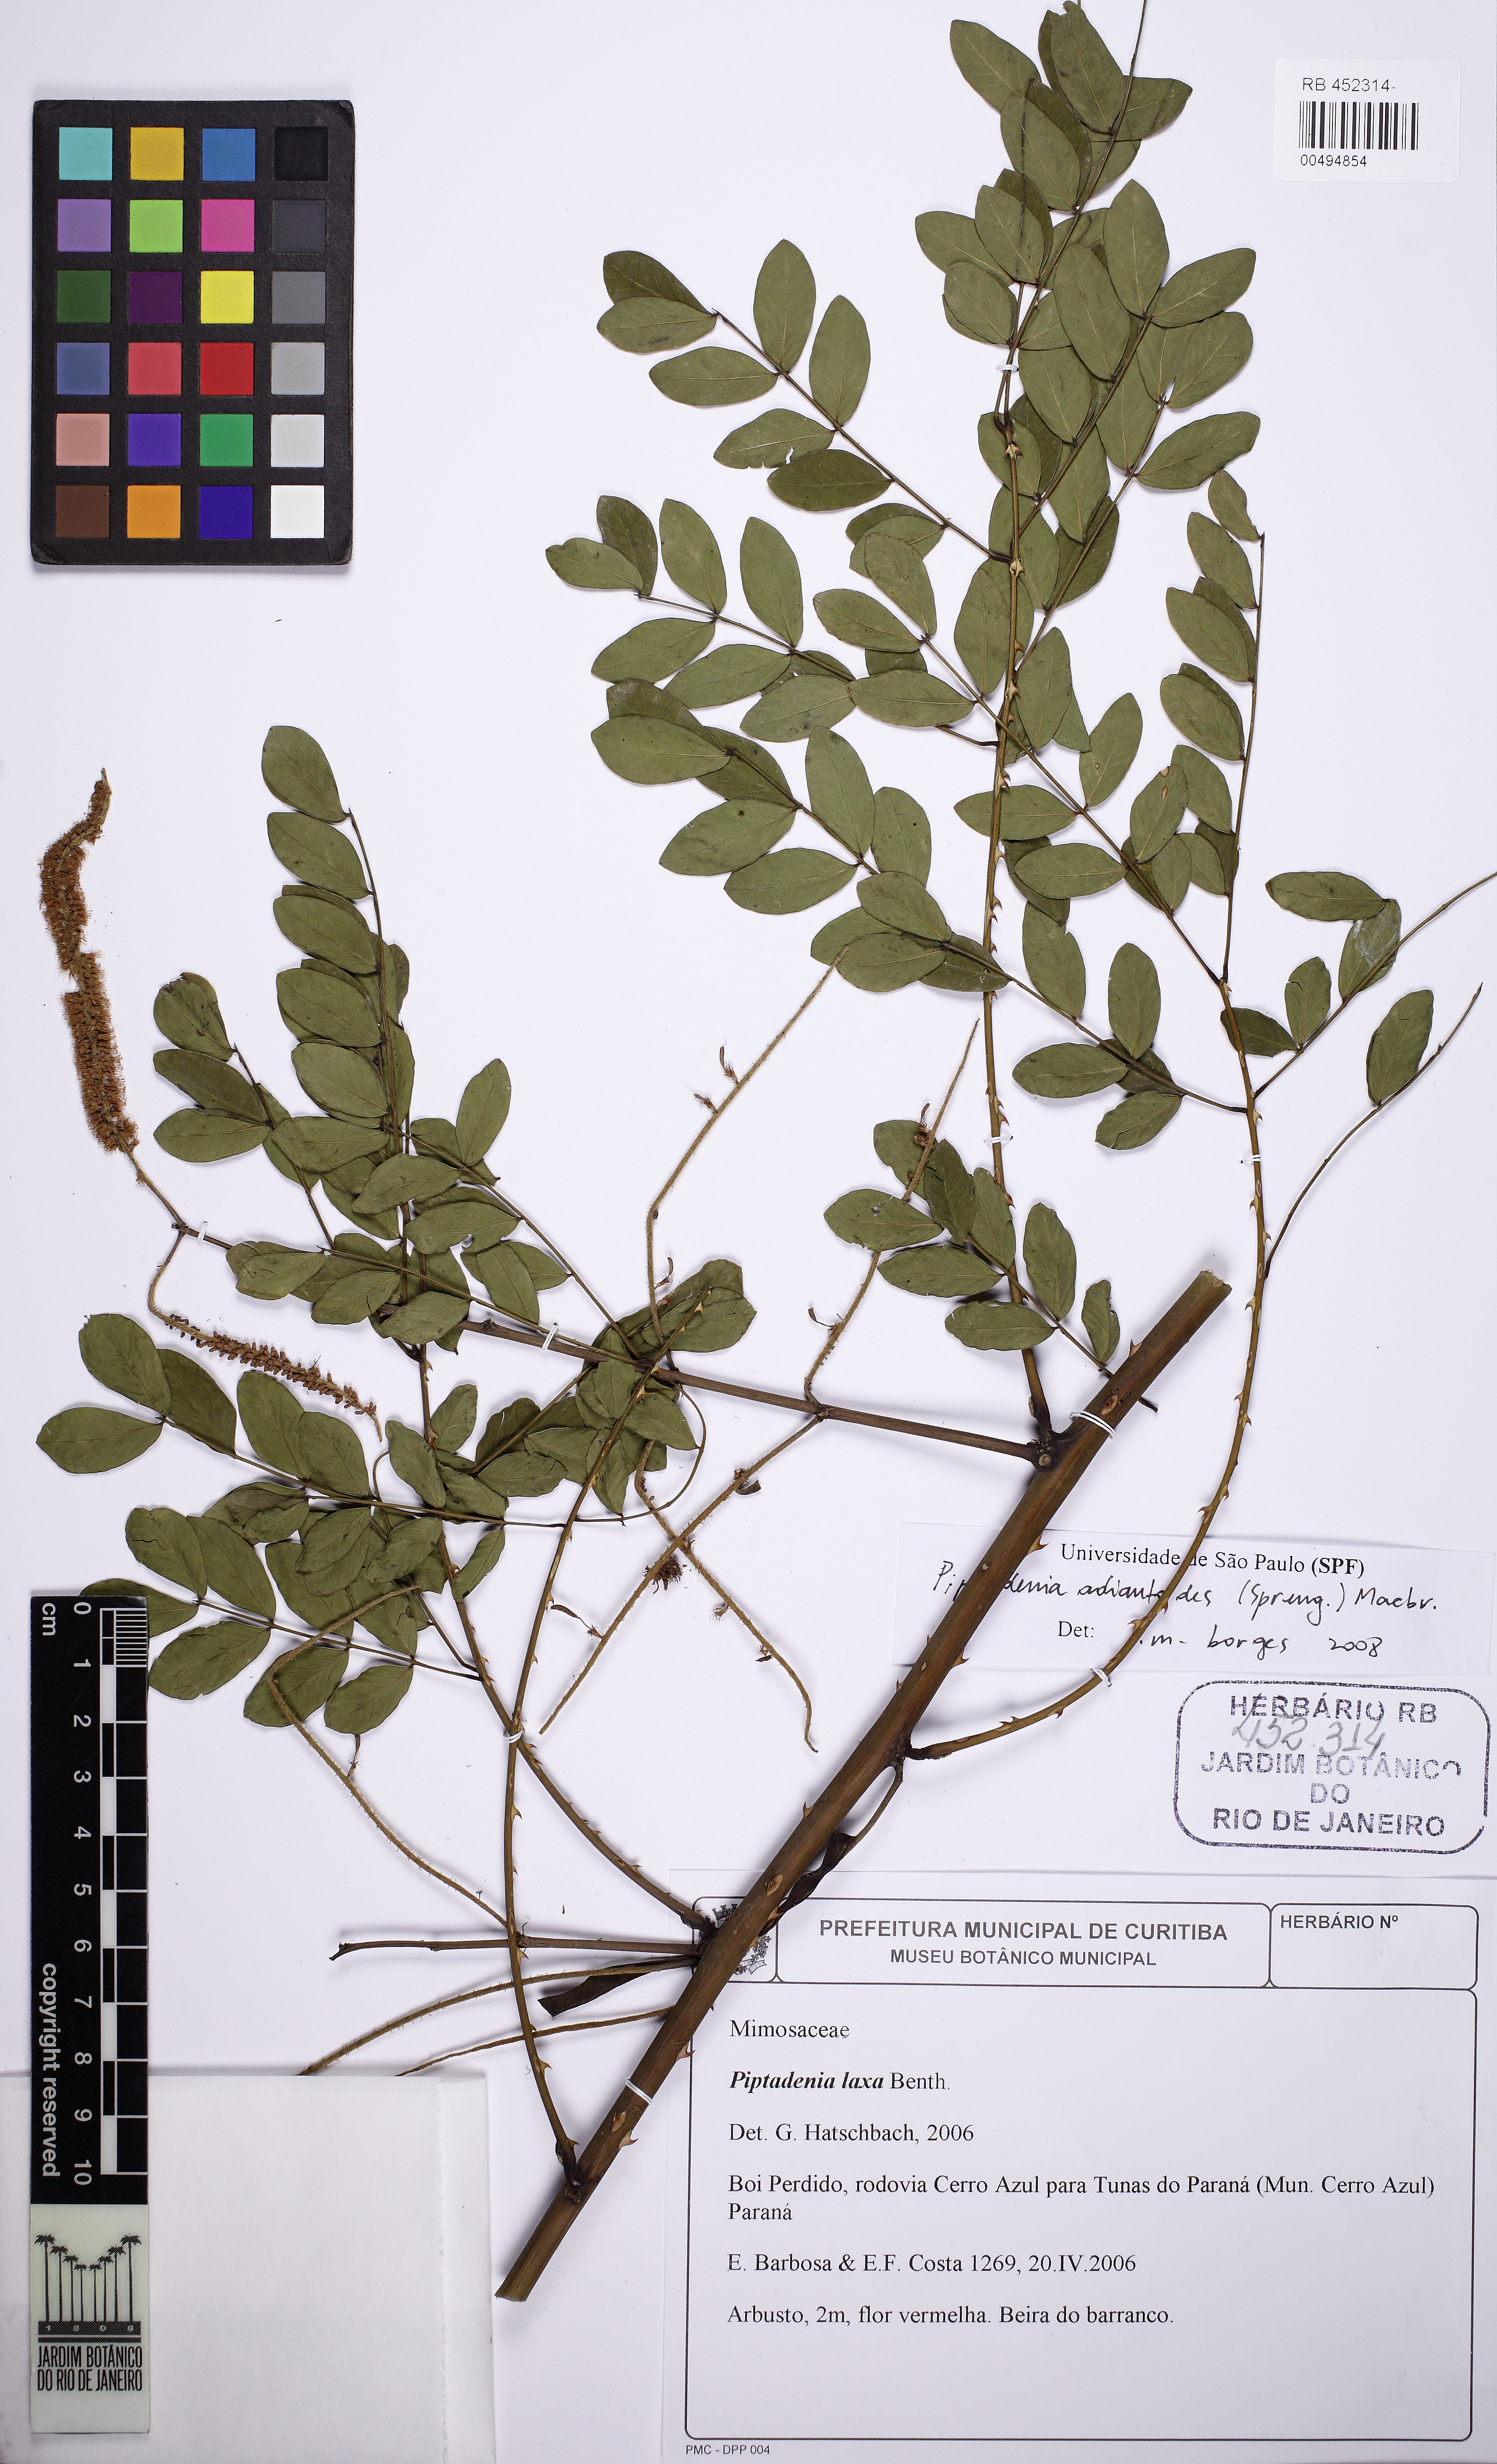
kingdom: Plantae
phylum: Tracheophyta
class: Magnoliopsida
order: Fabales
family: Fabaceae
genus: Piptadenia
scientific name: Piptadenia adiantoides
